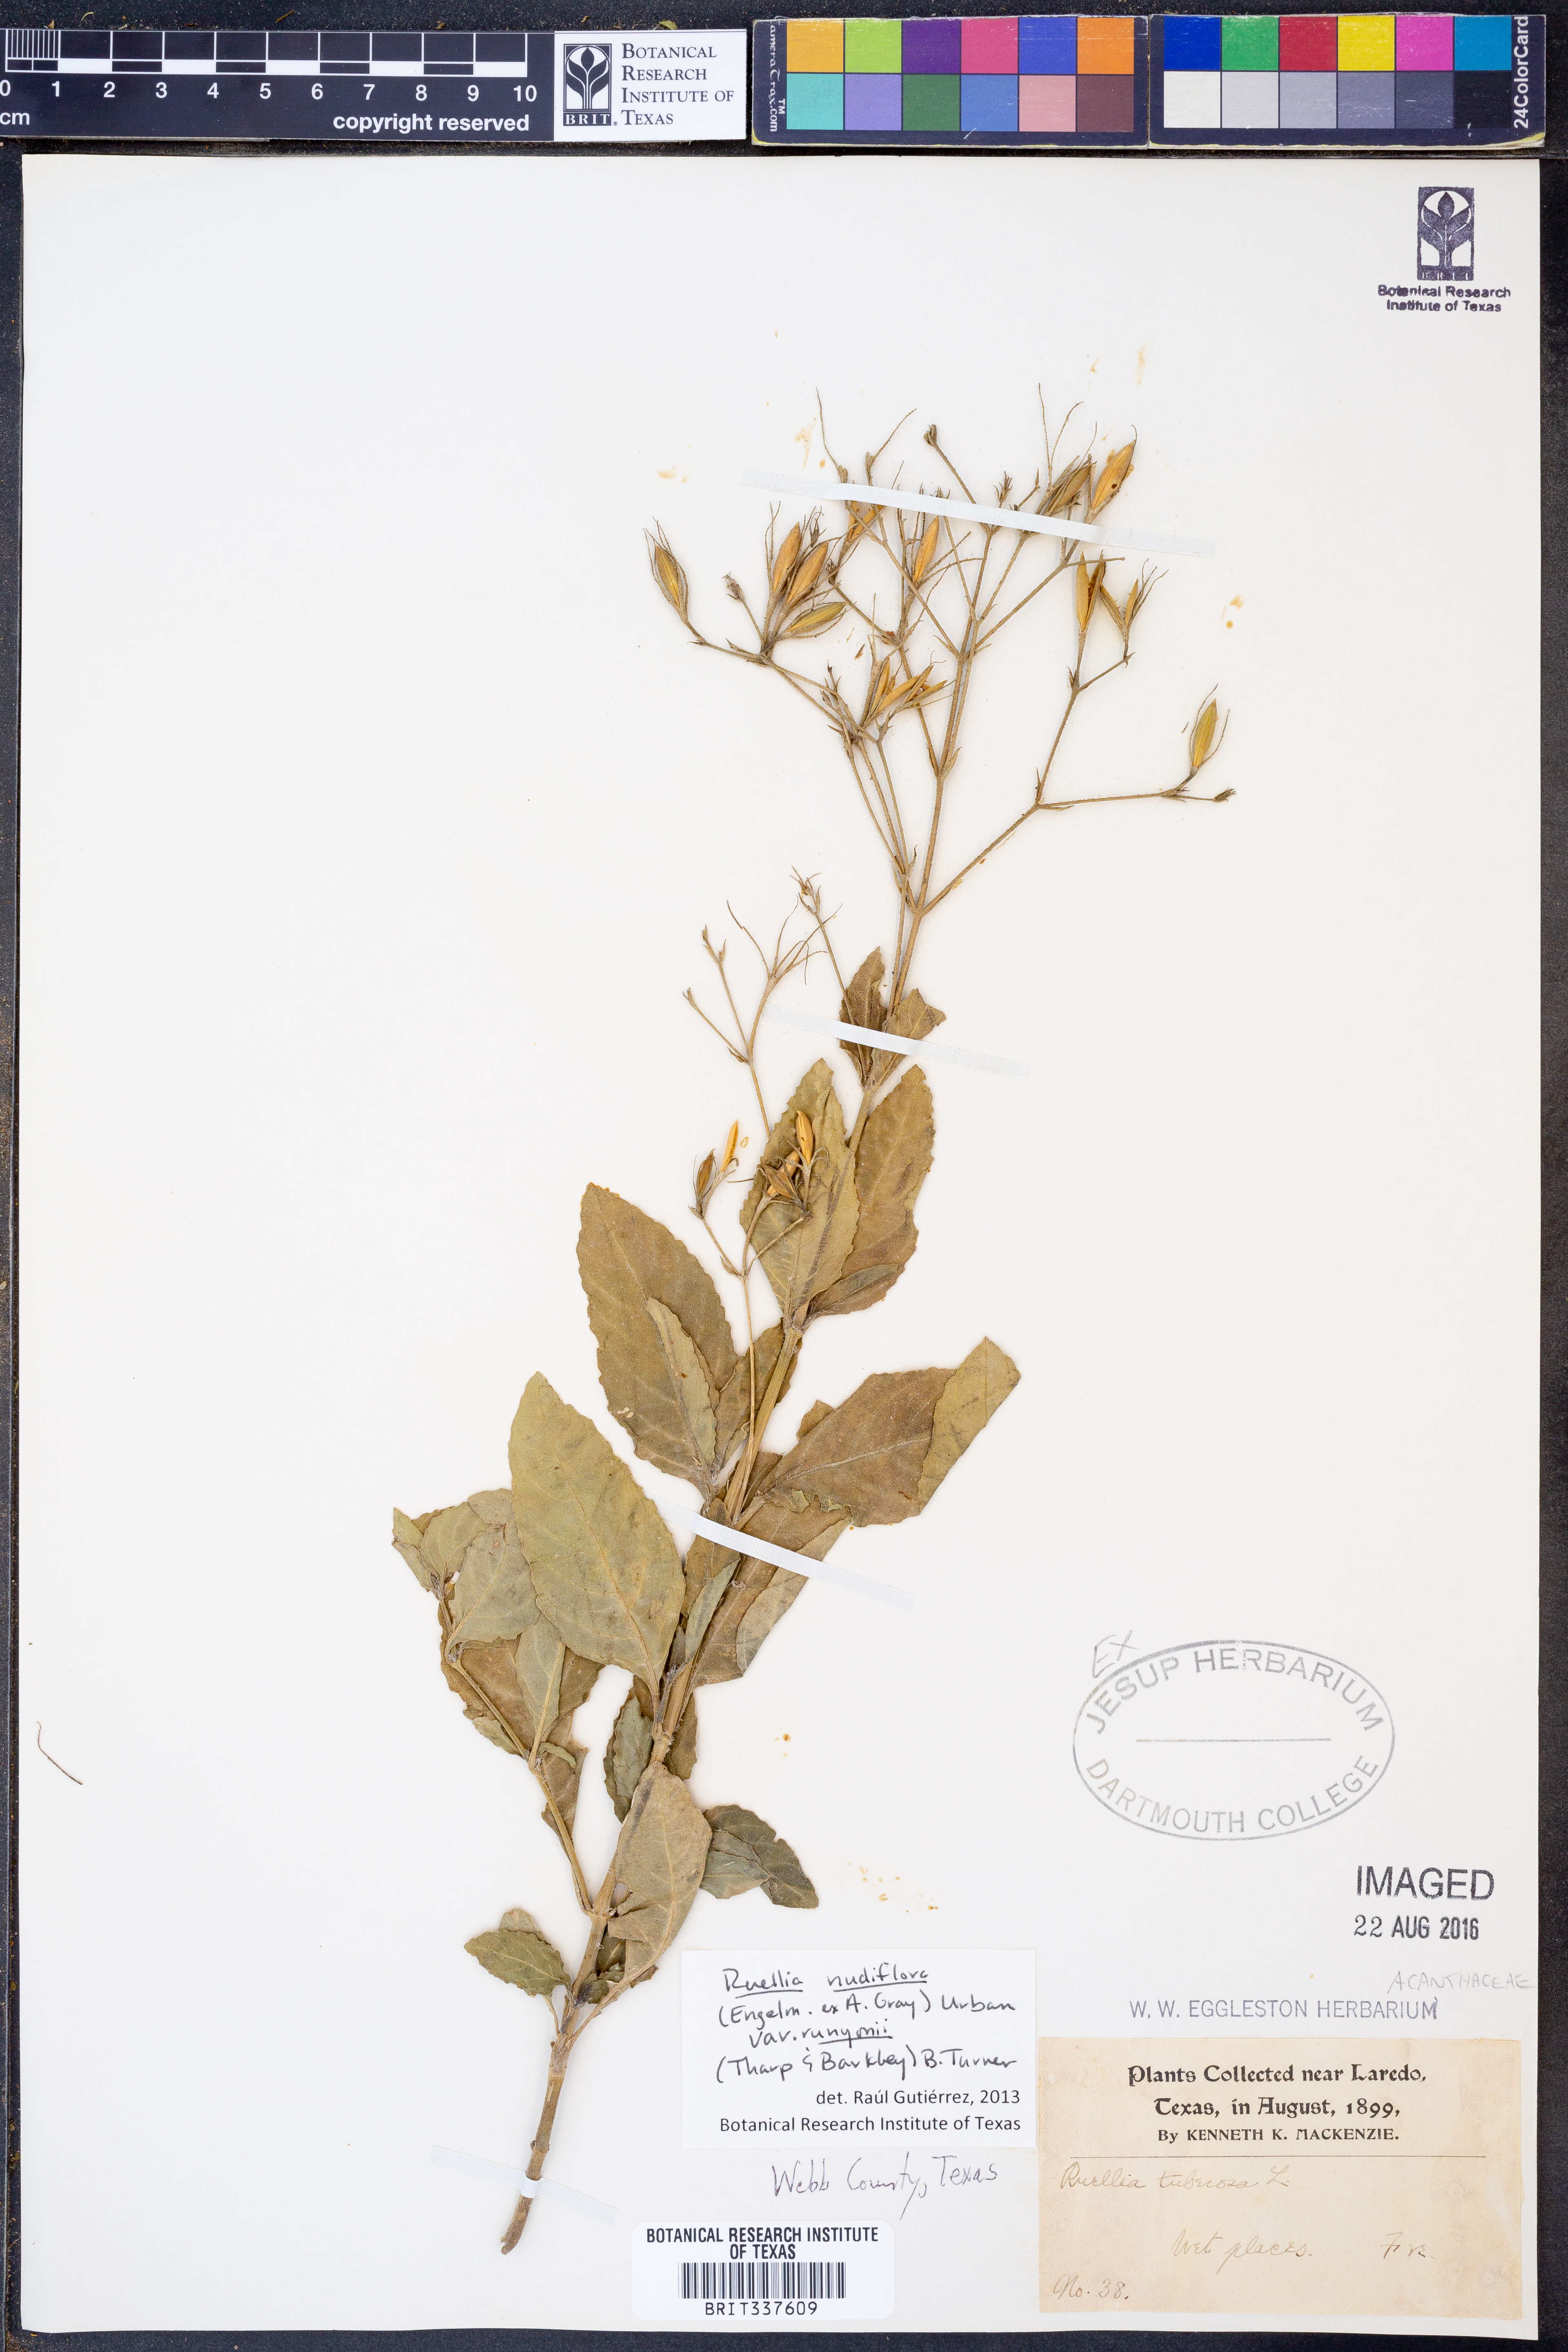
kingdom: Plantae
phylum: Tracheophyta
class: Magnoliopsida
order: Lamiales
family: Acanthaceae
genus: Ruellia
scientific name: Ruellia ciliatiflora
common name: Hairyflower wild petunia
